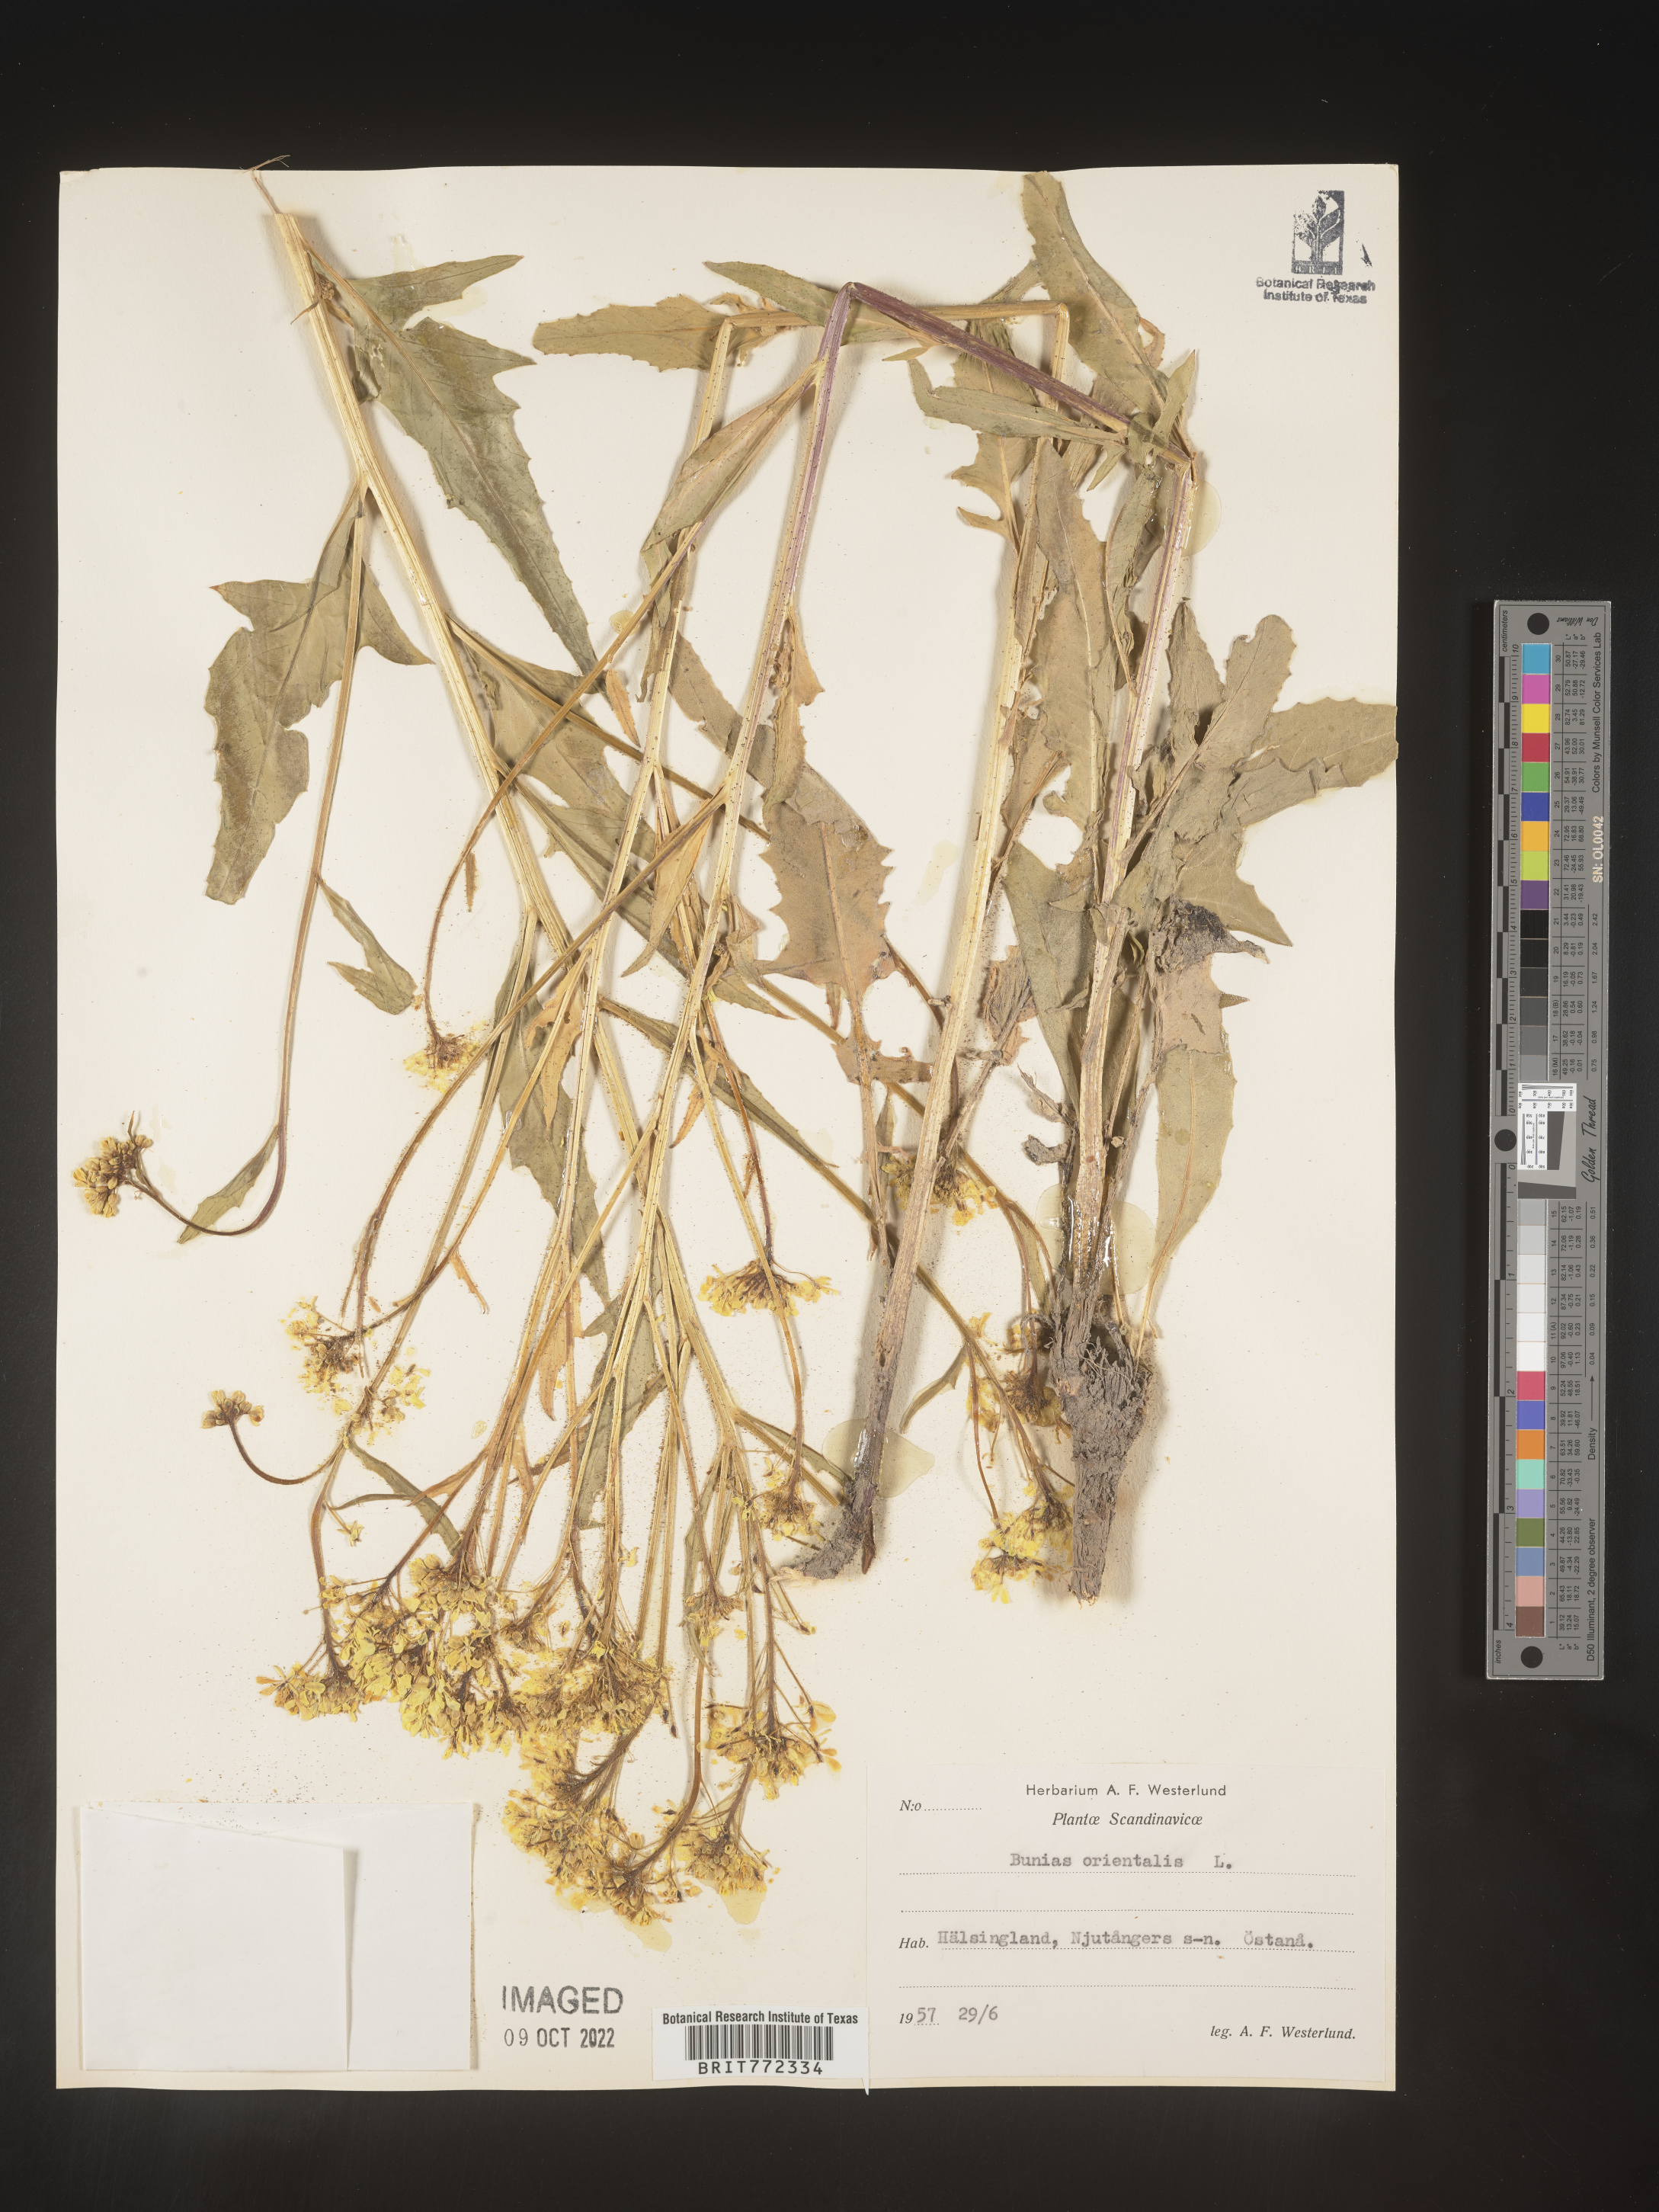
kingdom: Plantae
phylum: Tracheophyta
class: Magnoliopsida
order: Brassicales
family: Brassicaceae
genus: Bunias
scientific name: Bunias
